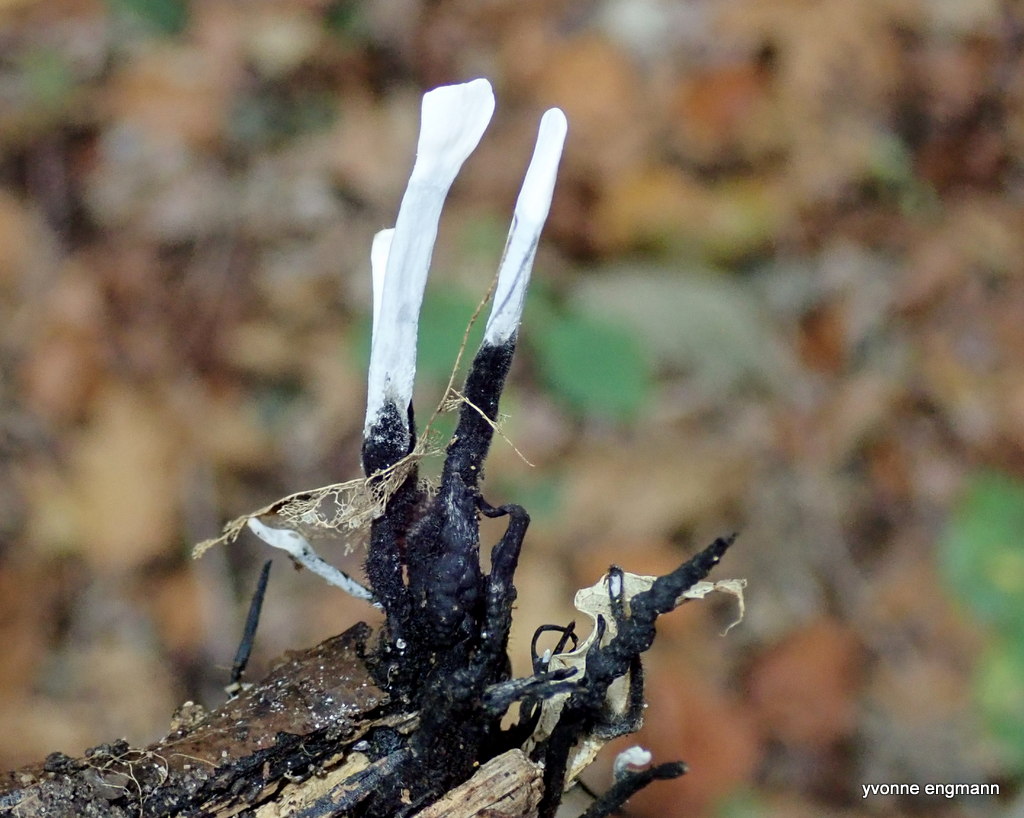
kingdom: Fungi
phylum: Ascomycota
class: Sordariomycetes
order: Xylariales
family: Xylariaceae
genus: Xylaria
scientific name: Xylaria hypoxylon
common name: grenet stødsvamp
